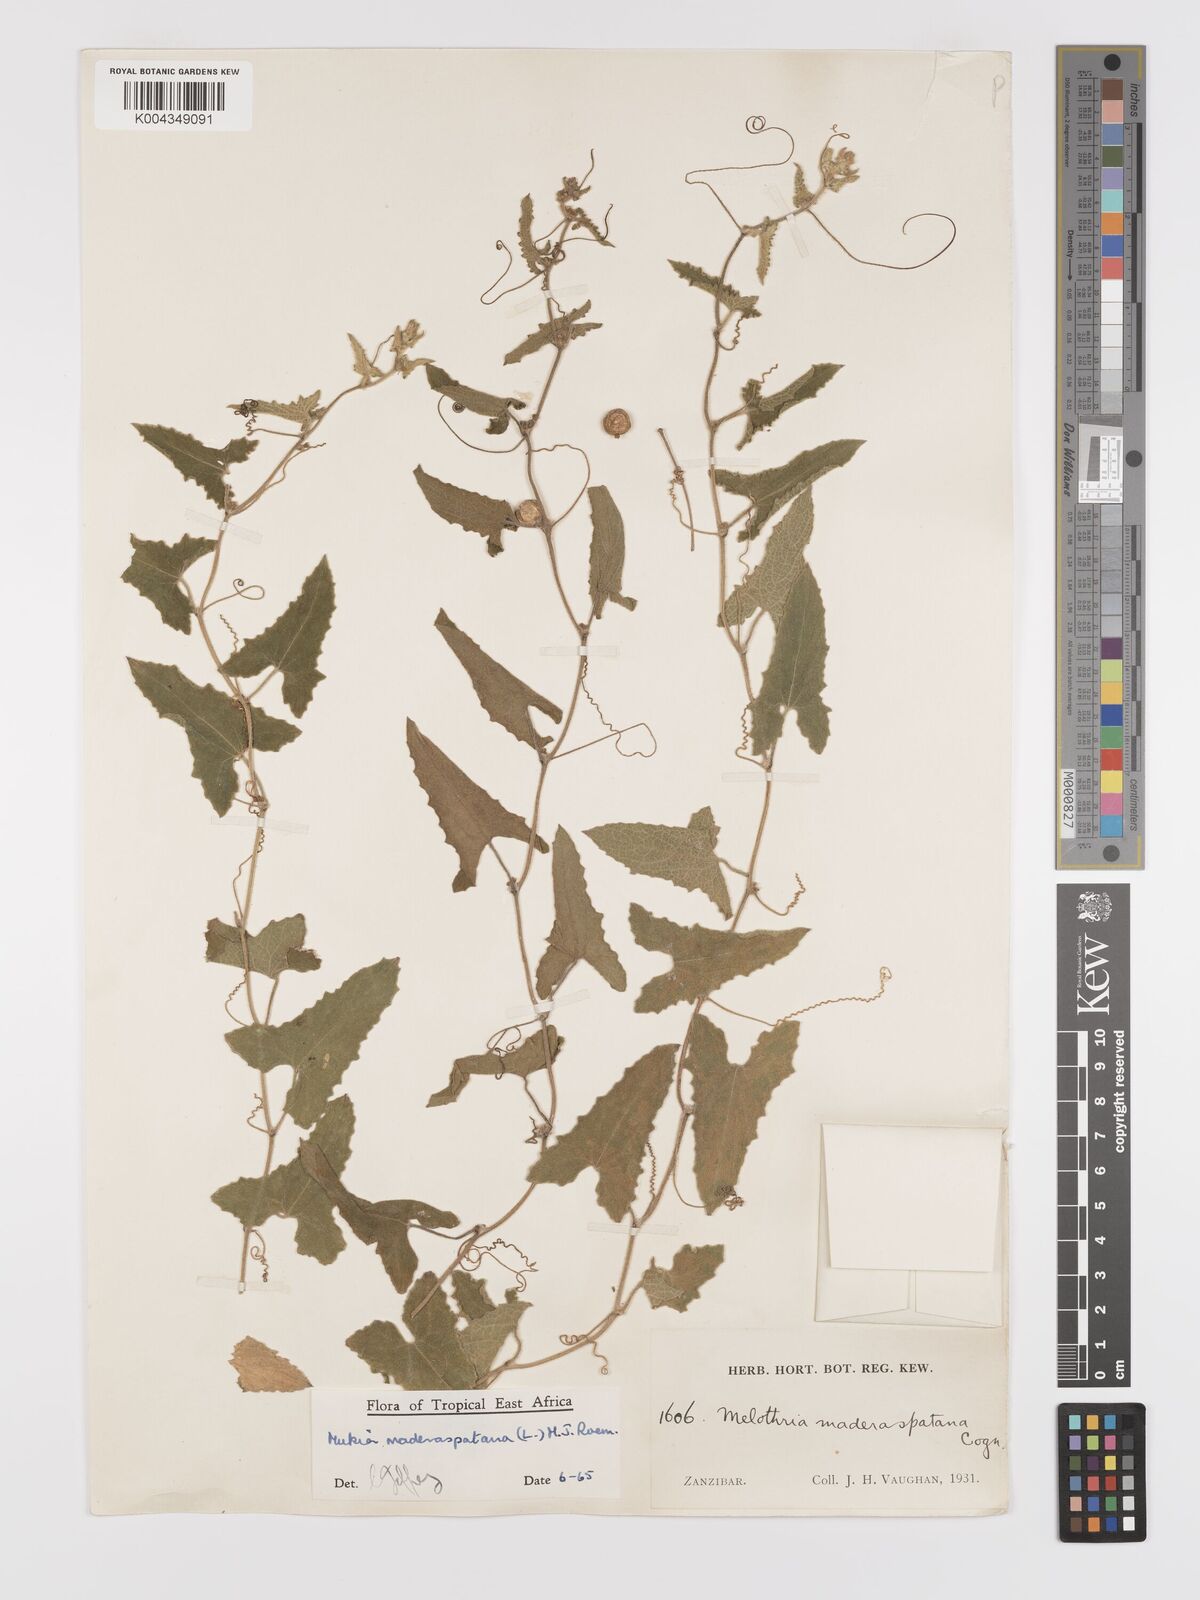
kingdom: Plantae
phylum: Tracheophyta
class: Magnoliopsida
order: Cucurbitales
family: Cucurbitaceae
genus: Cucumis
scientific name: Cucumis maderaspatanus
